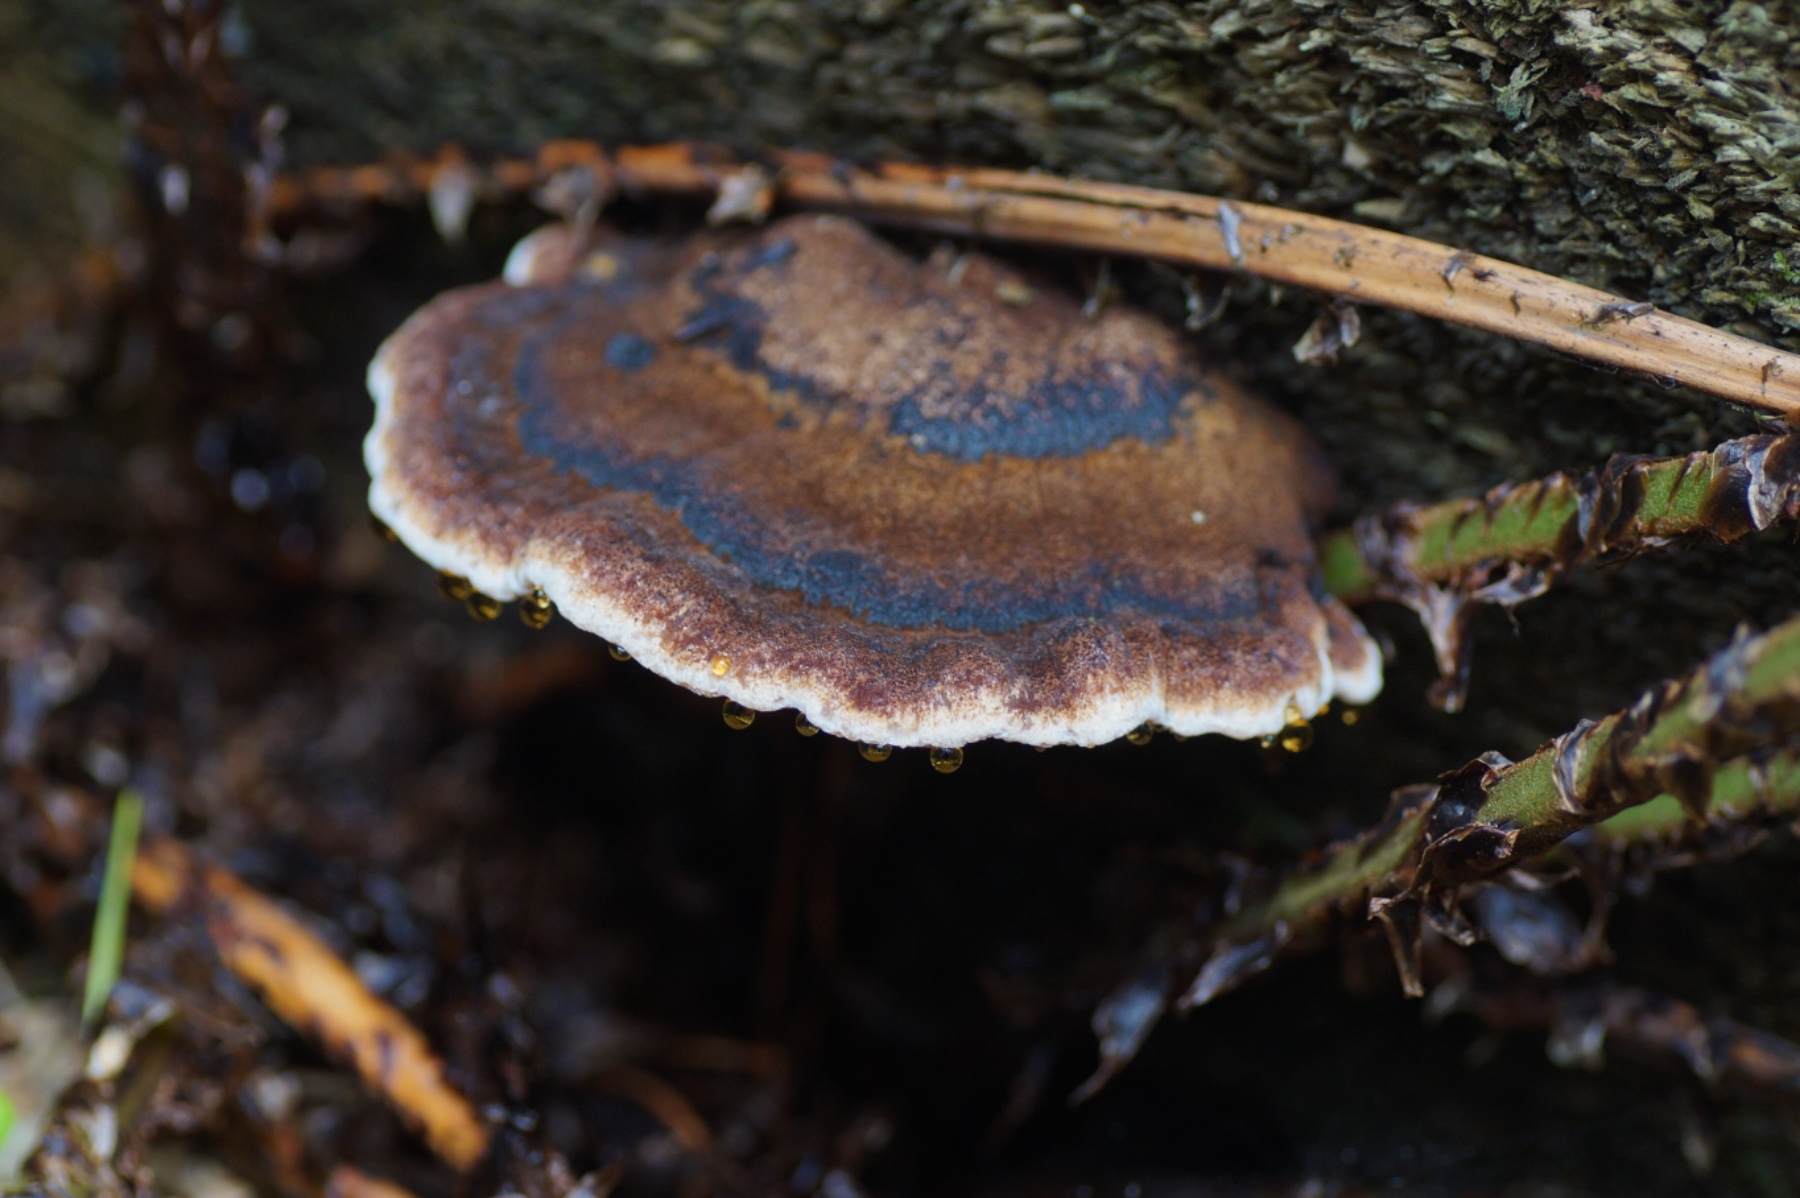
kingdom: Fungi
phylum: Basidiomycota
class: Agaricomycetes
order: Polyporales
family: Ischnodermataceae
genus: Ischnoderma
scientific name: Ischnoderma benzoinum
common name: gran-tjæreporesvamp
